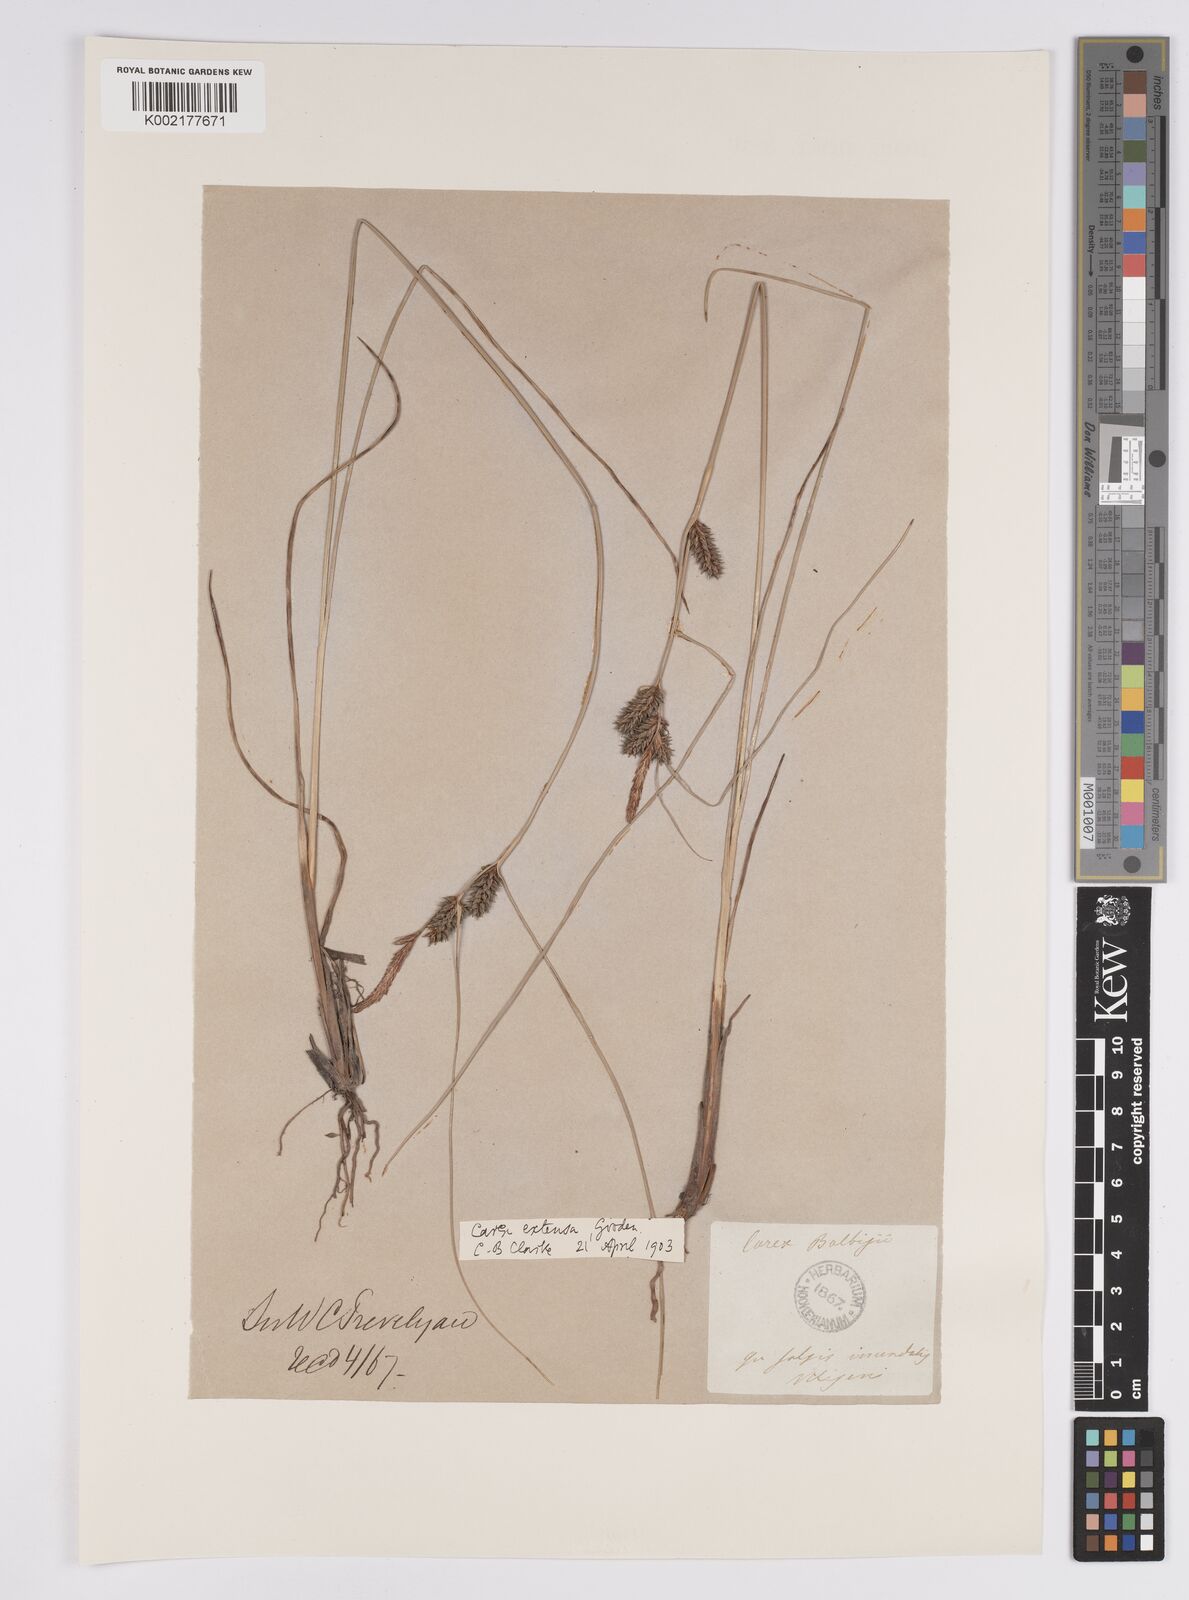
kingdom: Plantae
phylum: Tracheophyta
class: Liliopsida
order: Poales
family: Cyperaceae
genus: Carex
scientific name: Carex extensa
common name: Long-bracted sedge
